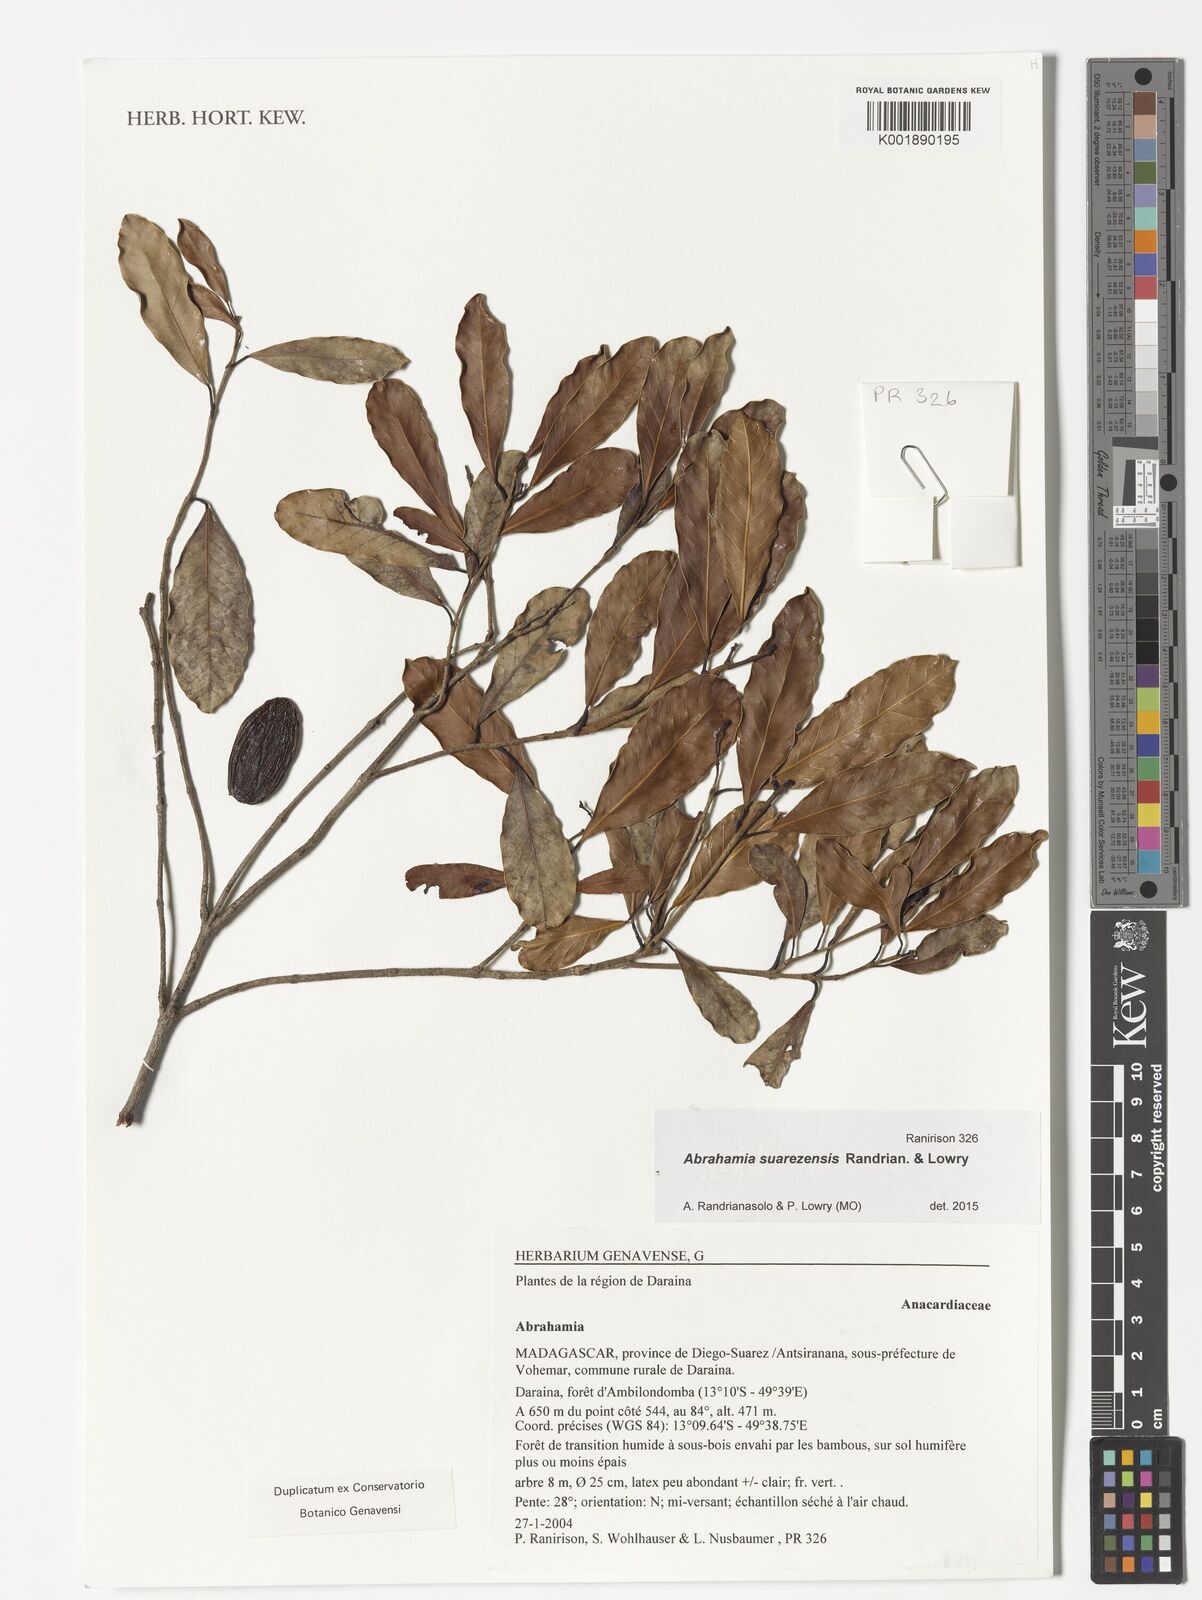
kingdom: Plantae
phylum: Tracheophyta
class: Magnoliopsida
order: Sapindales
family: Anacardiaceae
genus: Abrahamia
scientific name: Abrahamia suarezensis
